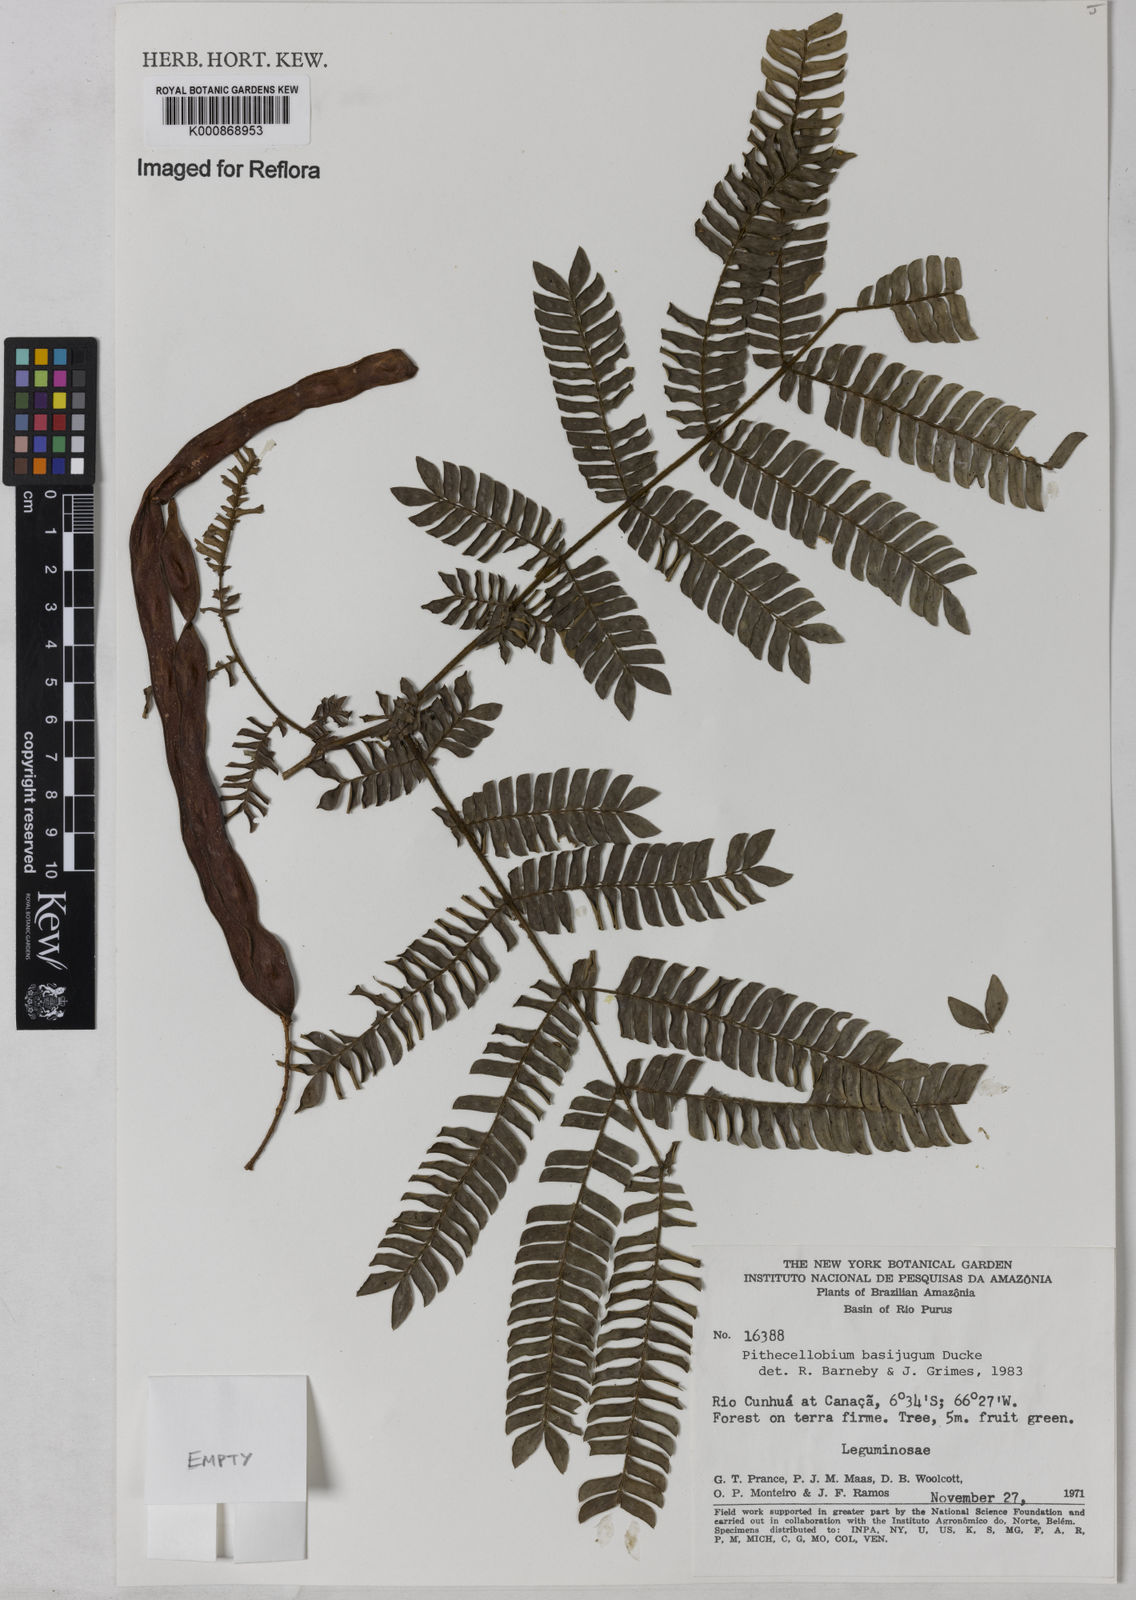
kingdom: Plantae
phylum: Tracheophyta
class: Magnoliopsida
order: Fabales
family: Fabaceae
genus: Zygia
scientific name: Zygia basijuga
